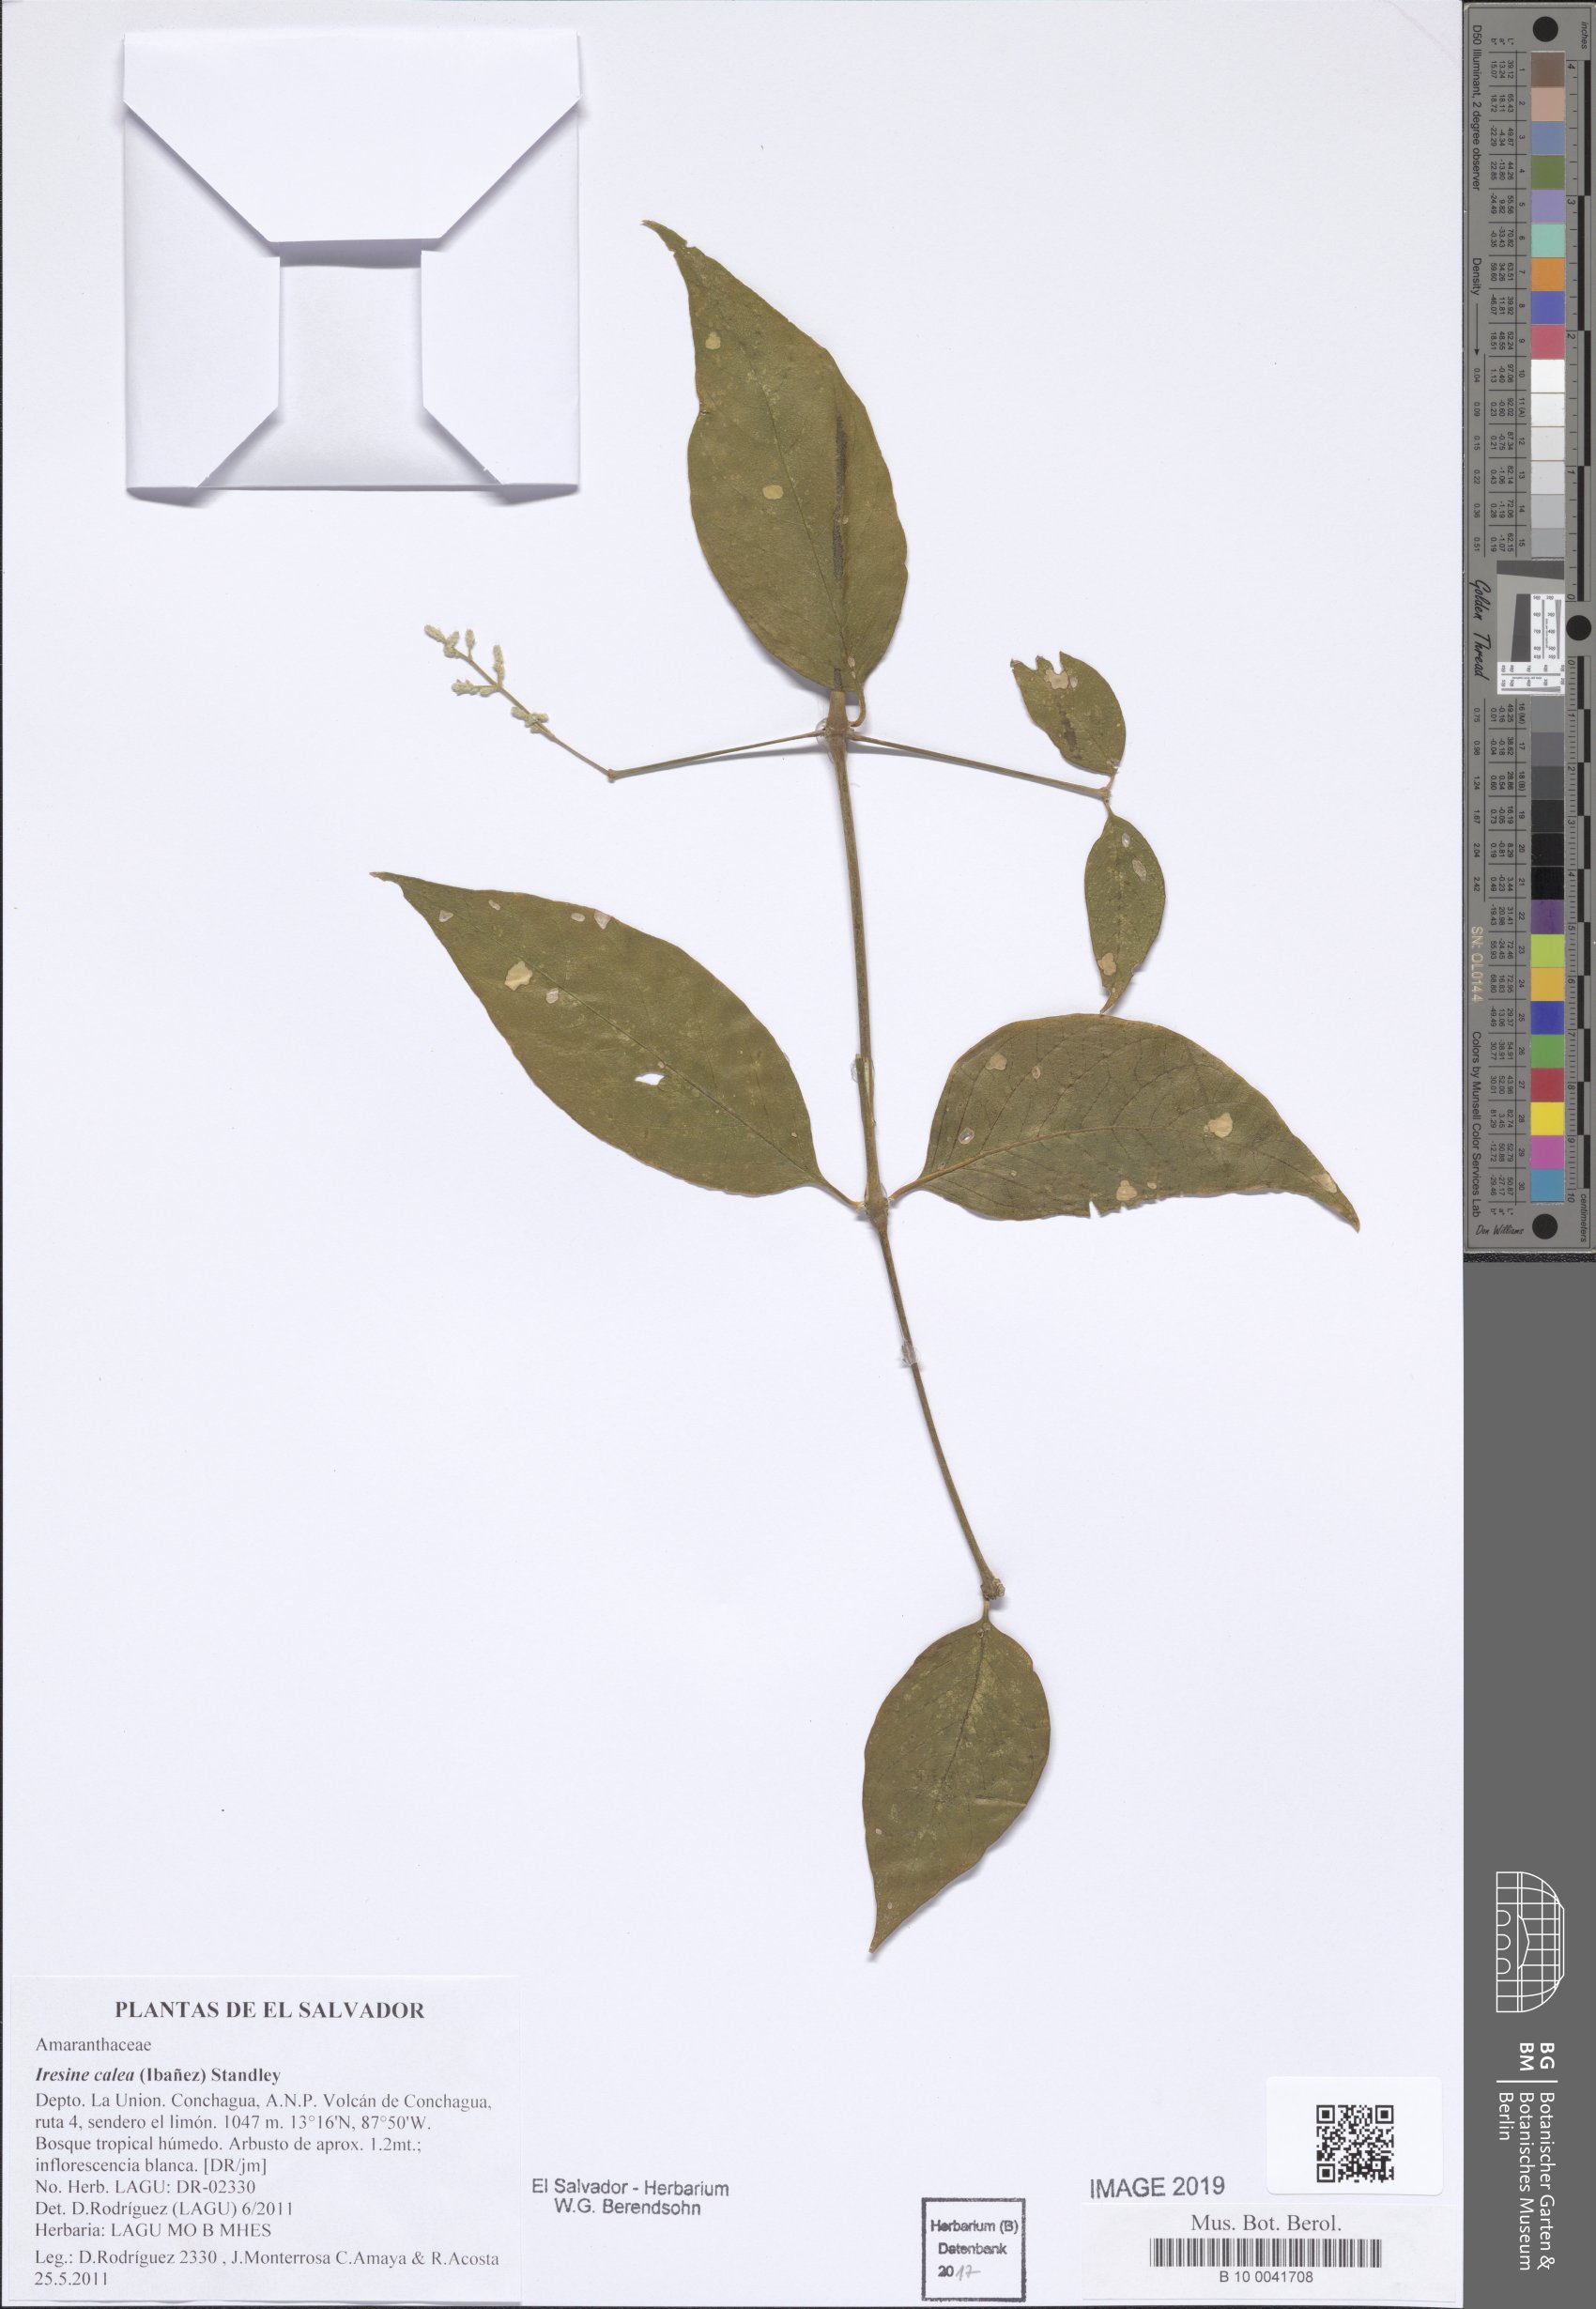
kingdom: Plantae
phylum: Tracheophyta
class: Magnoliopsida
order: Caryophyllales
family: Amaranthaceae
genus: Iresine
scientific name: Iresine latifolia
